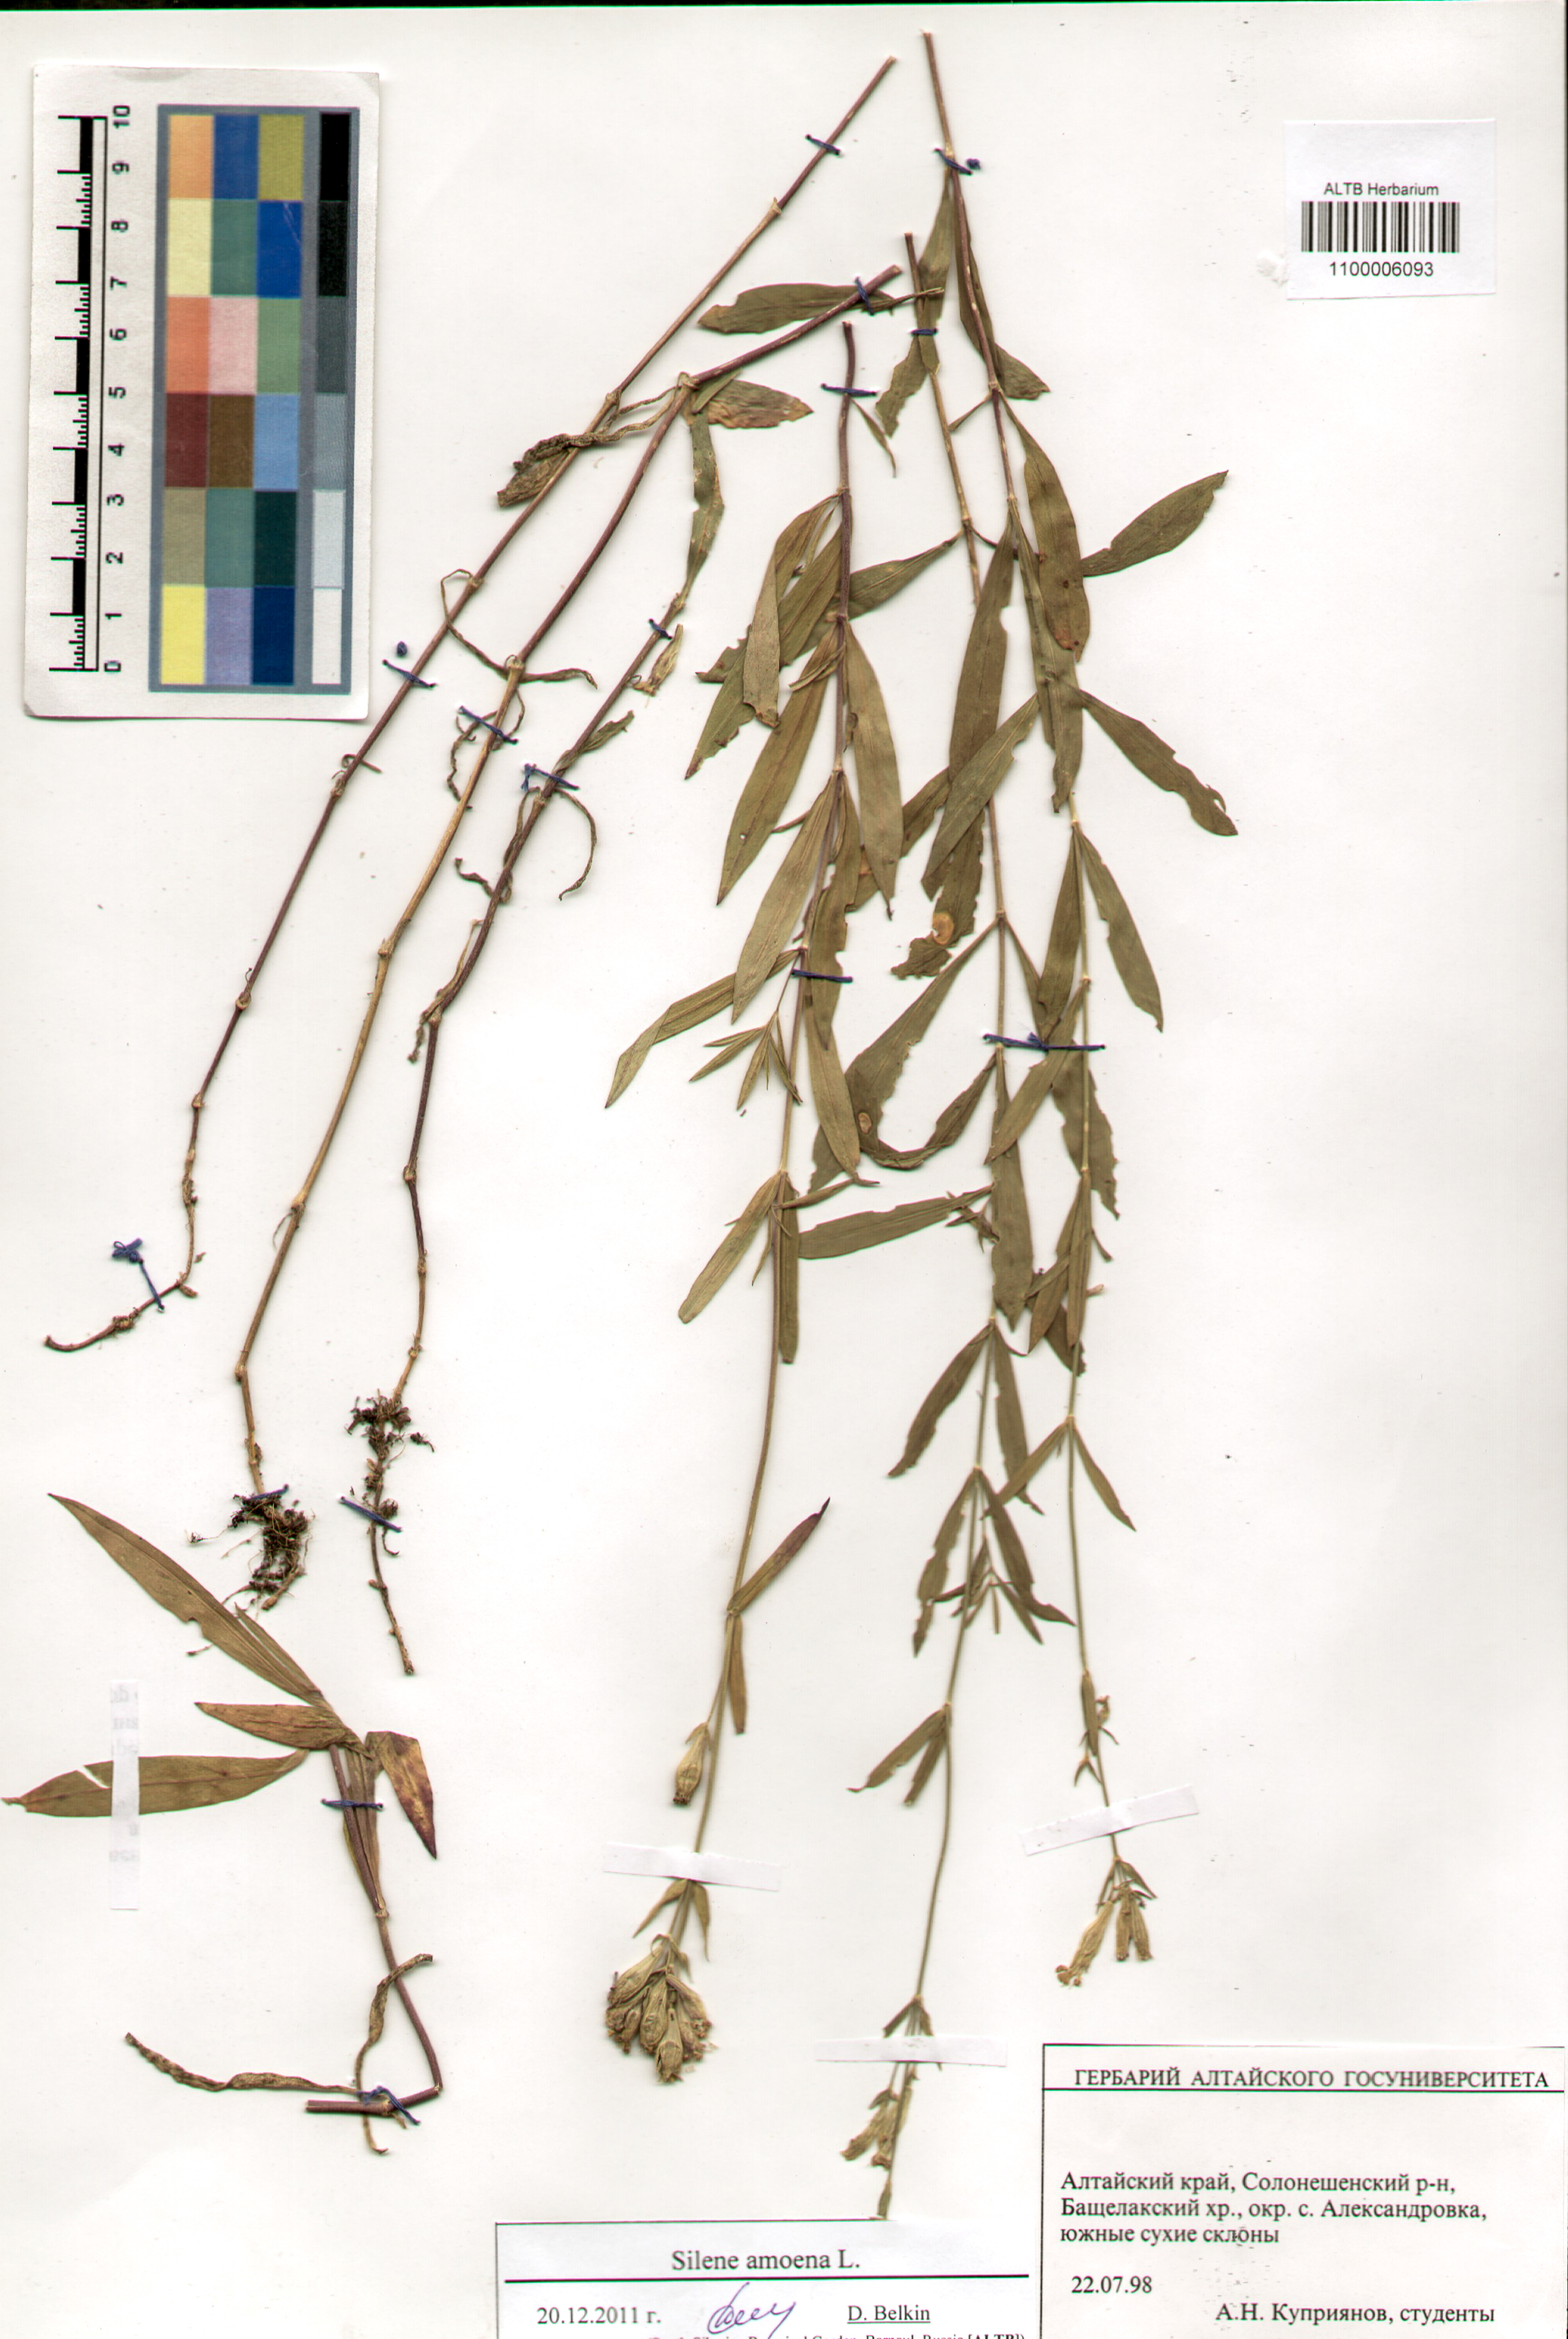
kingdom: Plantae
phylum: Tracheophyta
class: Magnoliopsida
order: Caryophyllales
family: Caryophyllaceae
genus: Silene
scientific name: Silene amoena
